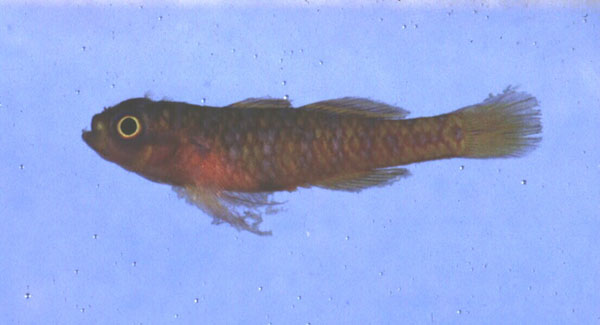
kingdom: Animalia
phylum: Chordata
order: Perciformes
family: Gobiidae
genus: Trimma
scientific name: Trimma
